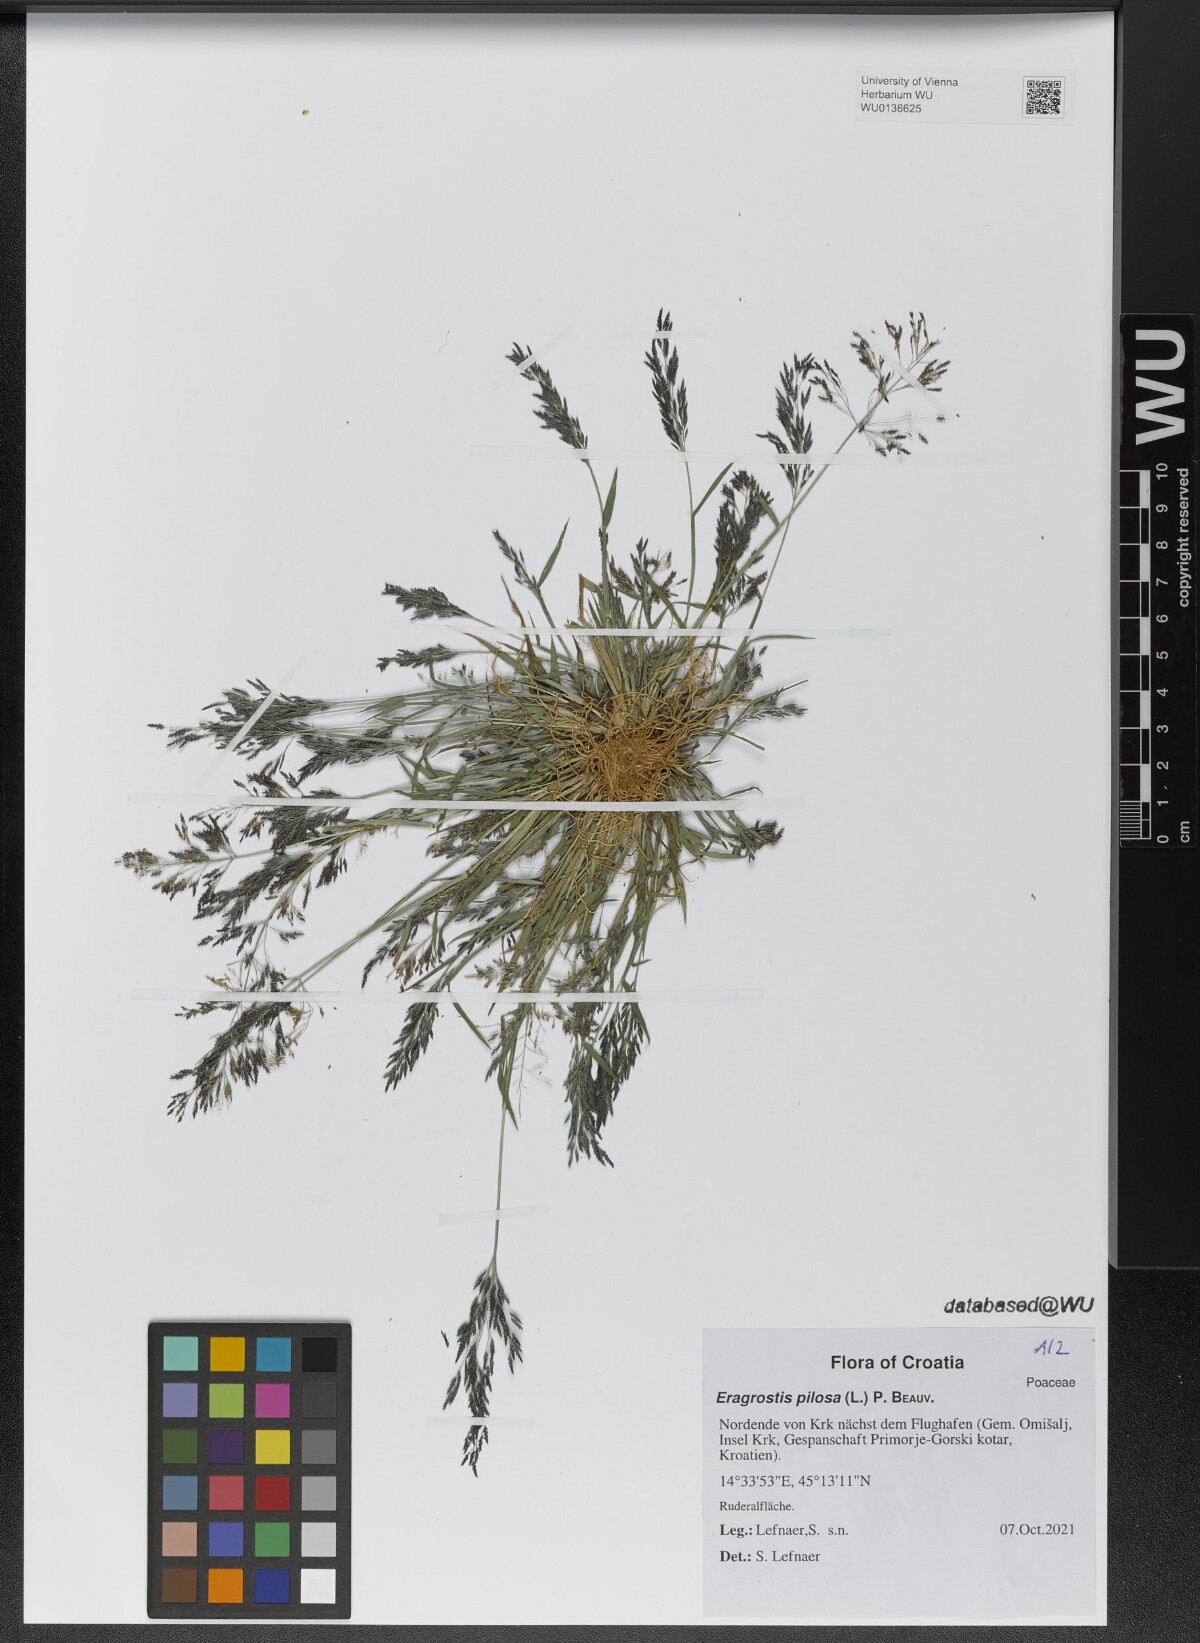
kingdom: Plantae
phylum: Tracheophyta
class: Liliopsida
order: Poales
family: Poaceae
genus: Eragrostis
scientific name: Eragrostis pilosa
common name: Indian lovegrass
